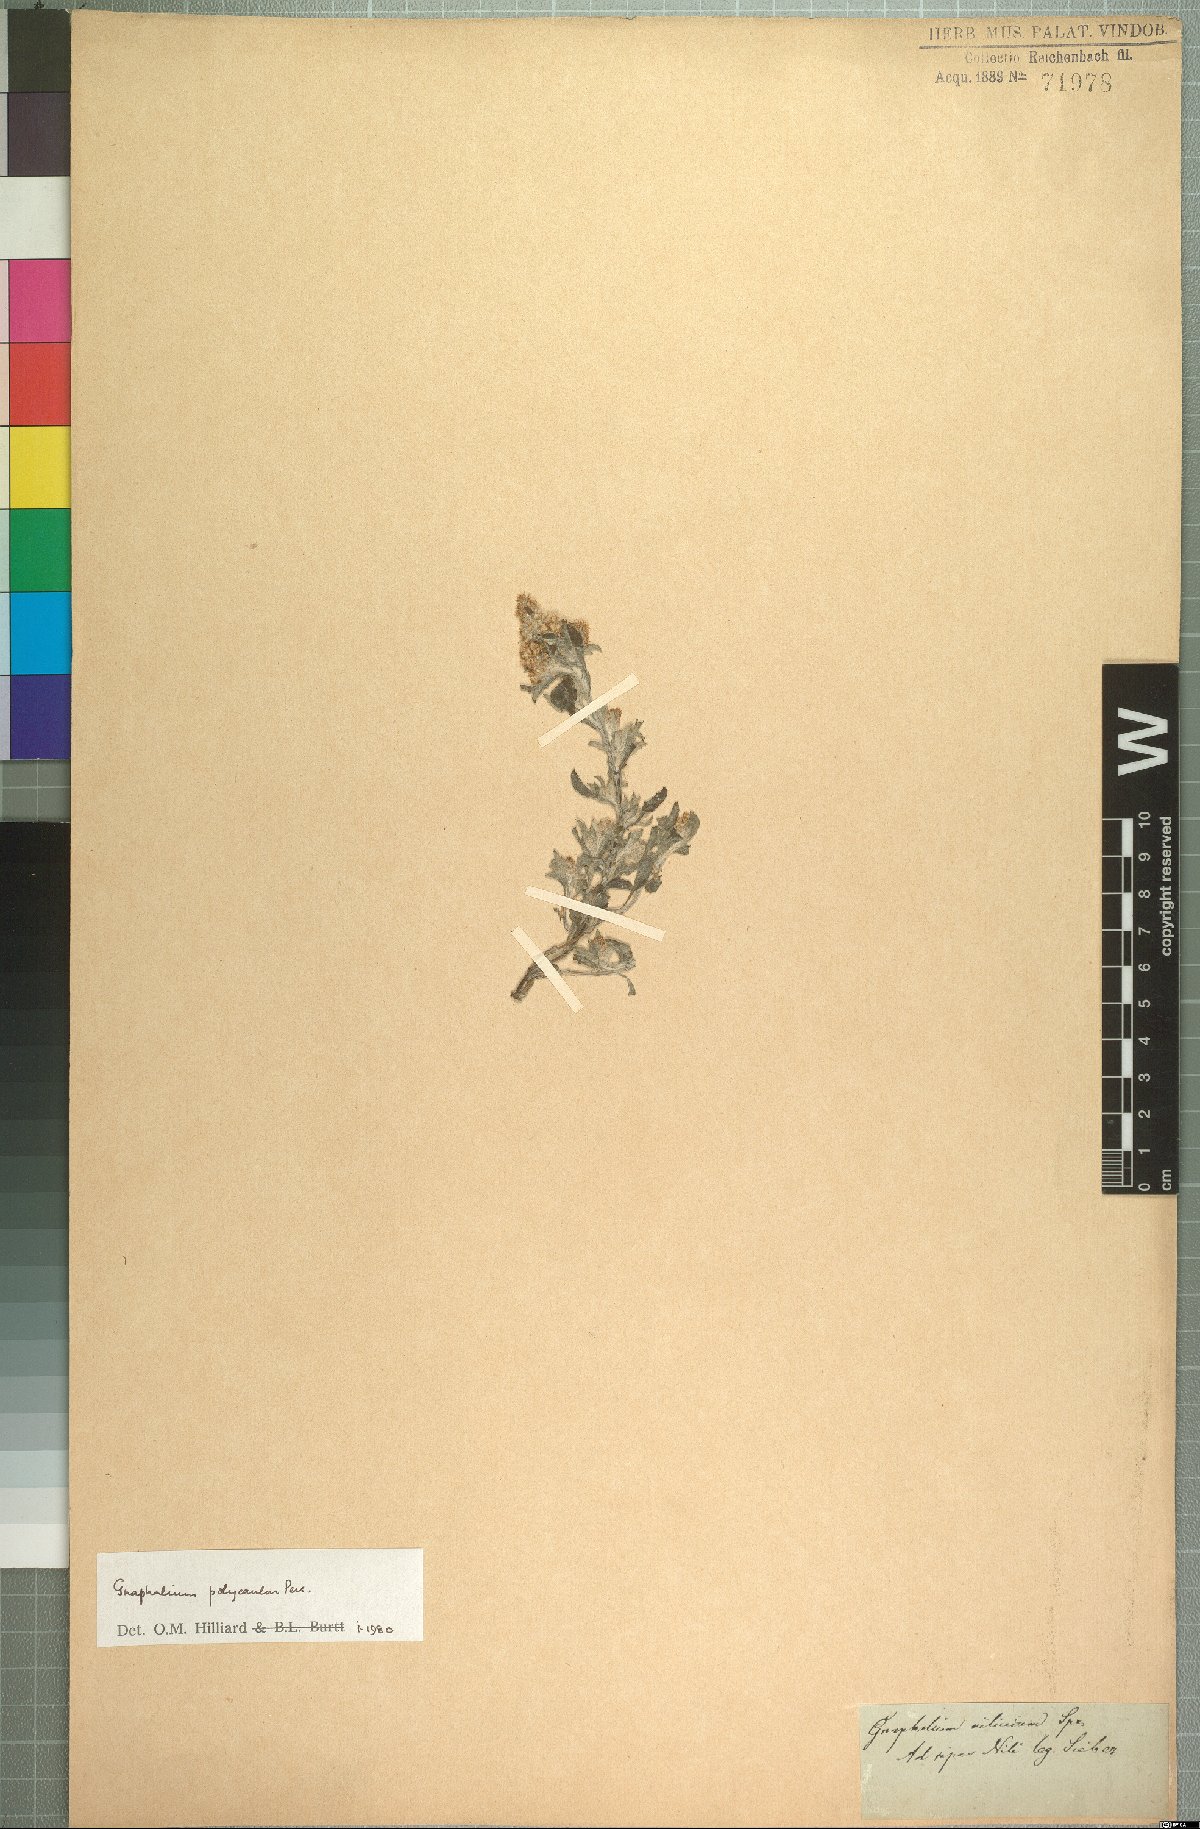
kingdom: Plantae
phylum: Tracheophyta
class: Magnoliopsida
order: Asterales
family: Asteraceae
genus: Gnaphalium
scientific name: Gnaphalium polycaulon
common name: Western cudweed
